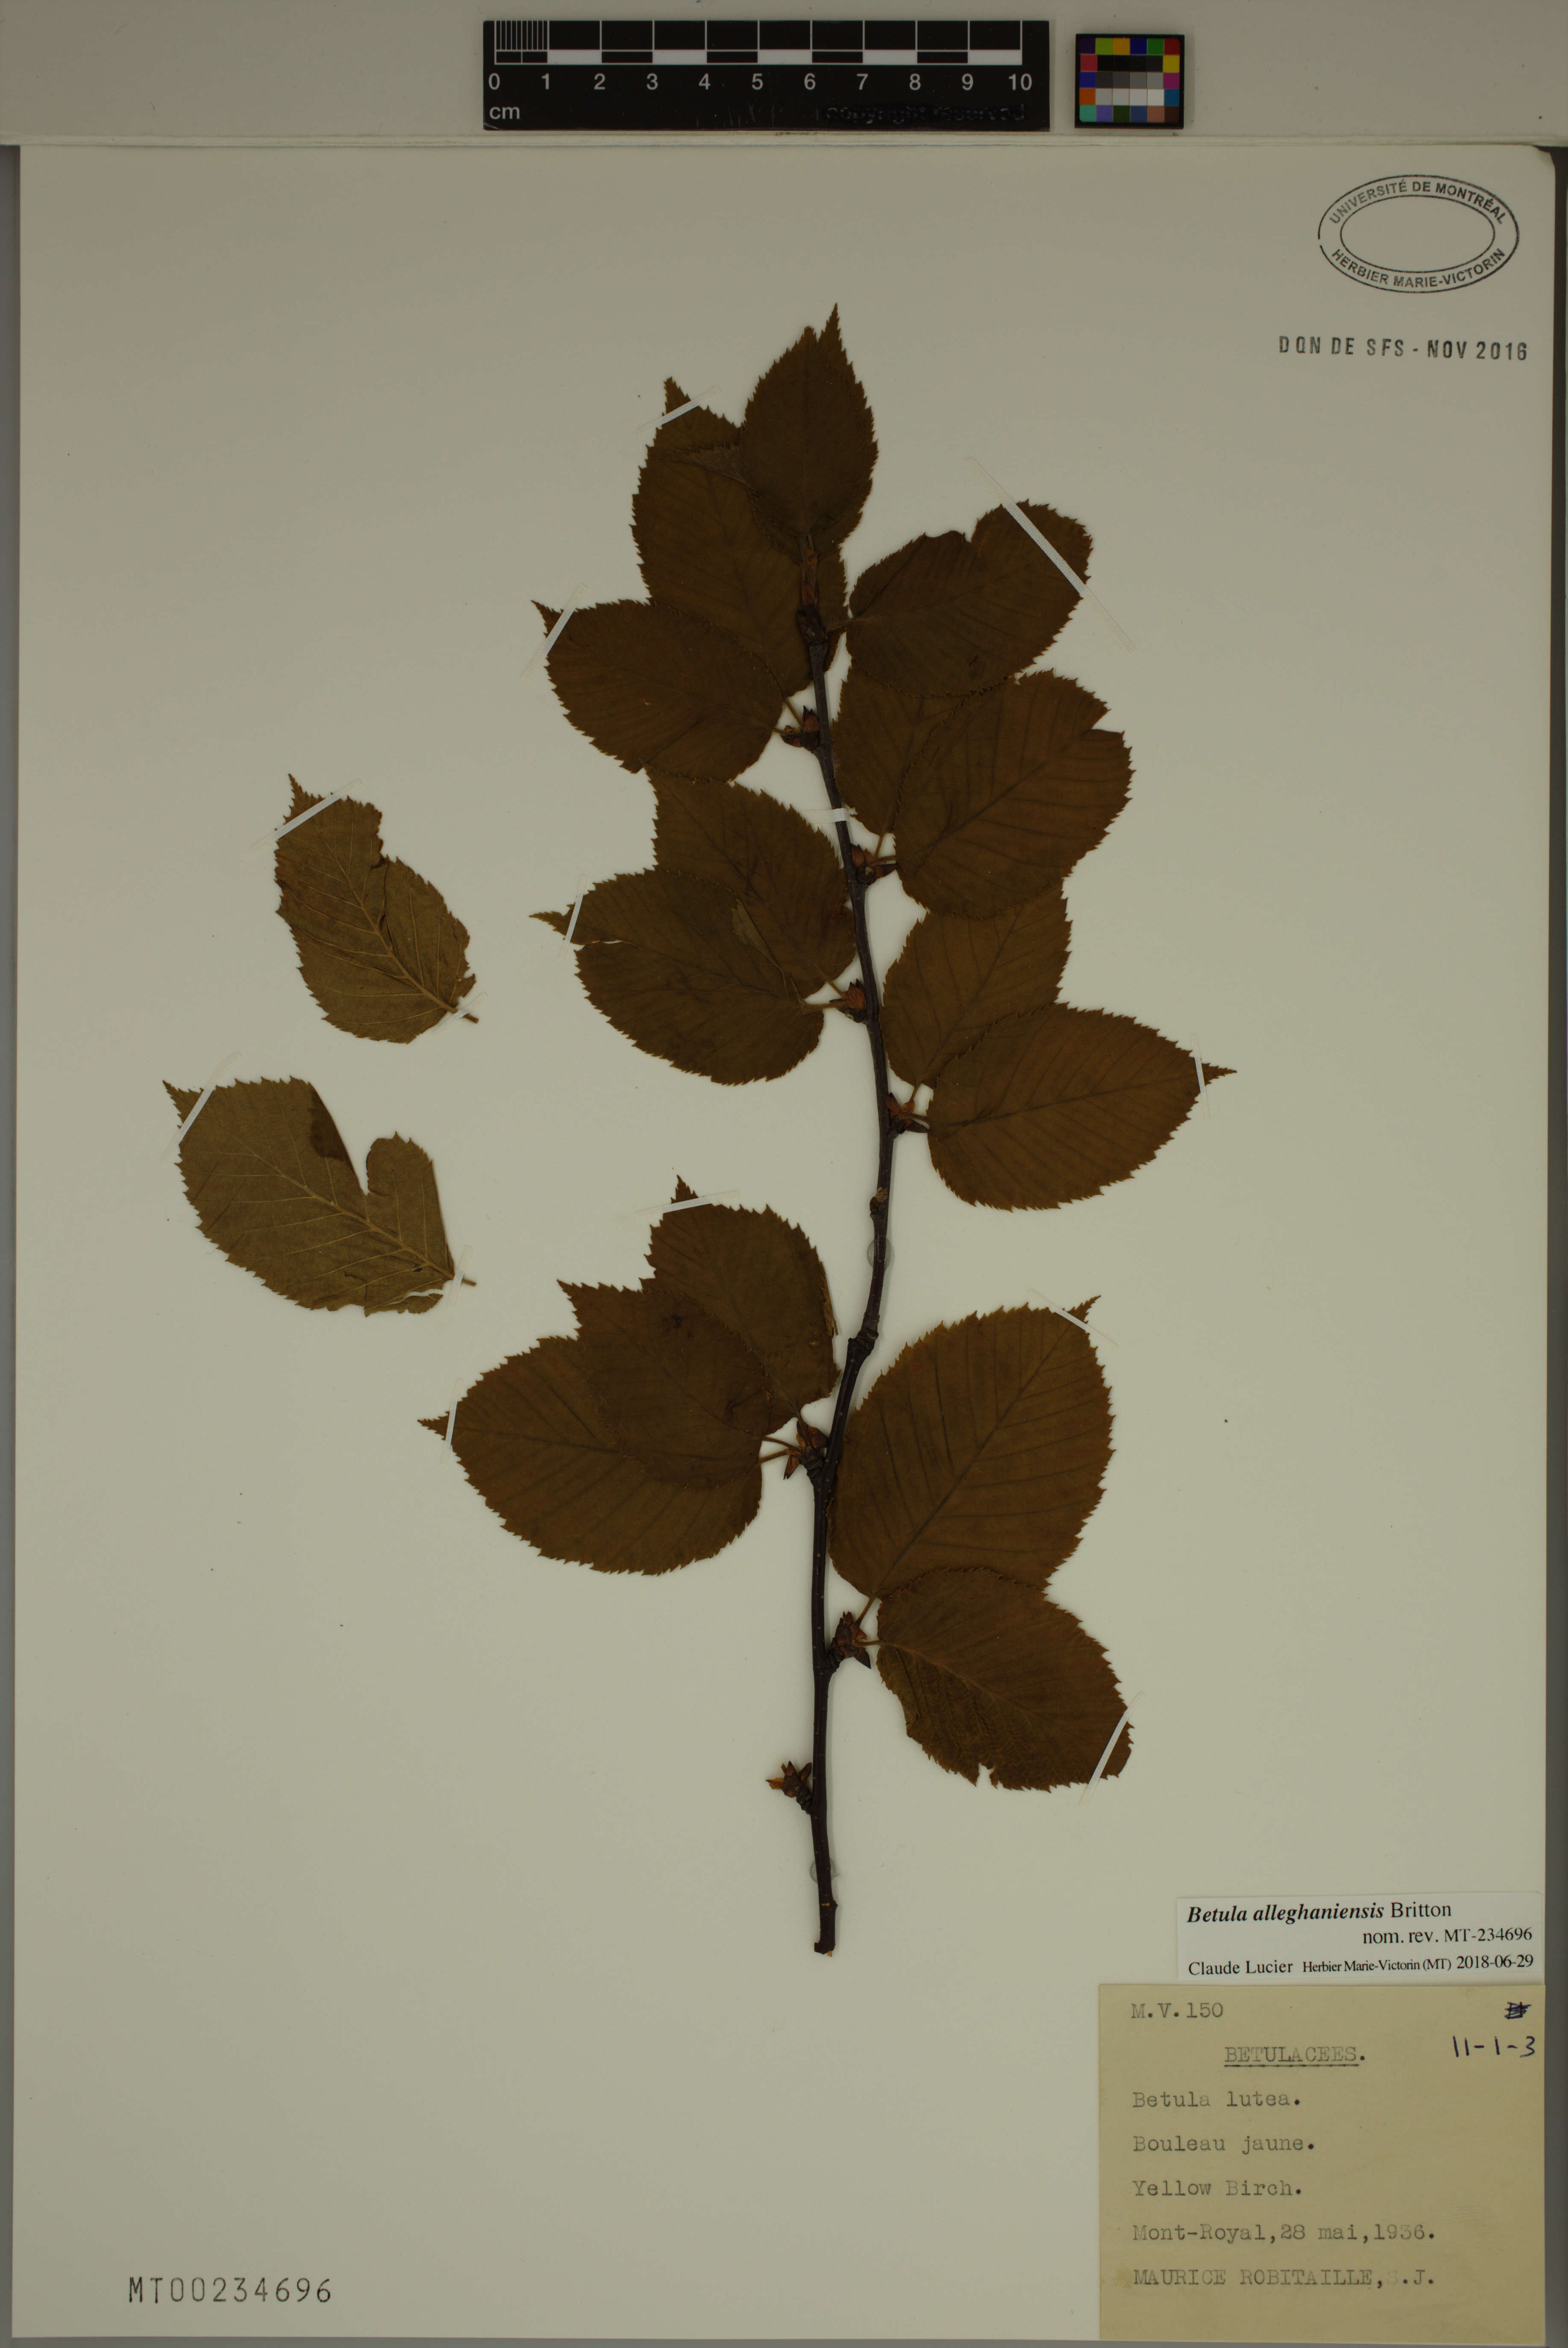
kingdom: Plantae
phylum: Tracheophyta
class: Magnoliopsida
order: Fagales
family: Betulaceae
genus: Betula
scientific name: Betula alleghaniensis
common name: Yellow birch
